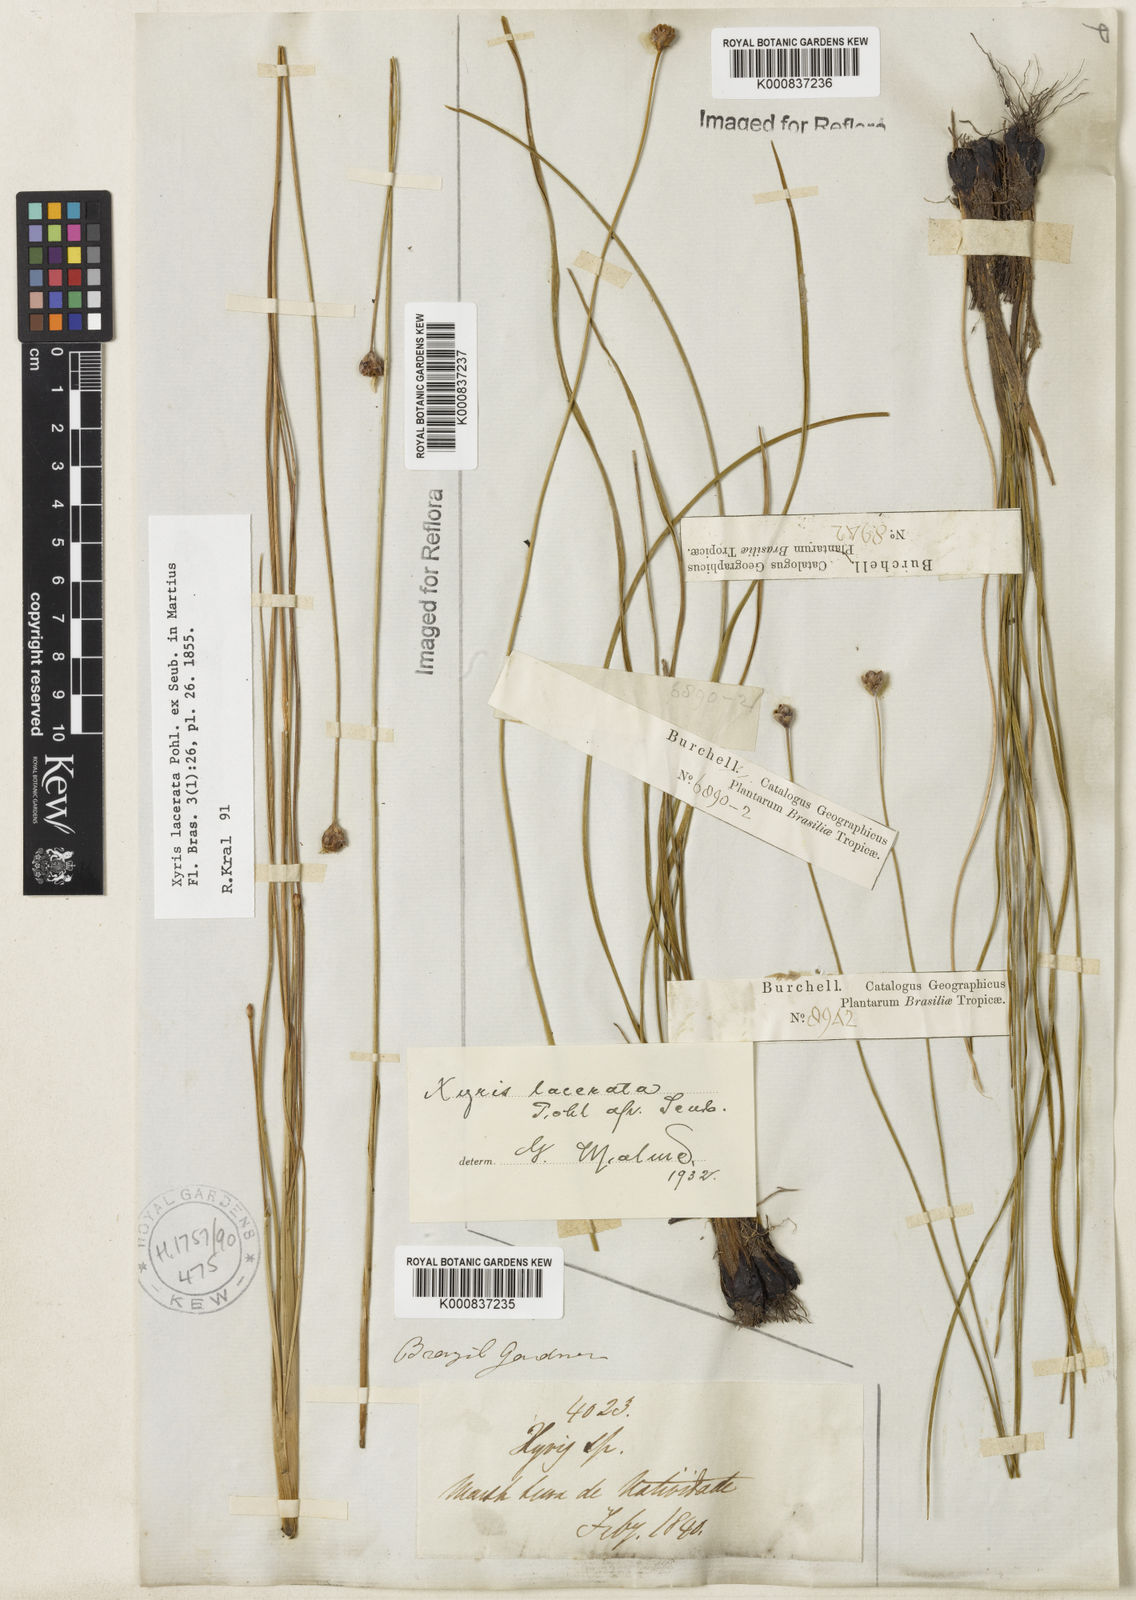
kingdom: Plantae
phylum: Tracheophyta
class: Liliopsida
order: Poales
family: Xyridaceae
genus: Xyris
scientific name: Xyris lacerata
